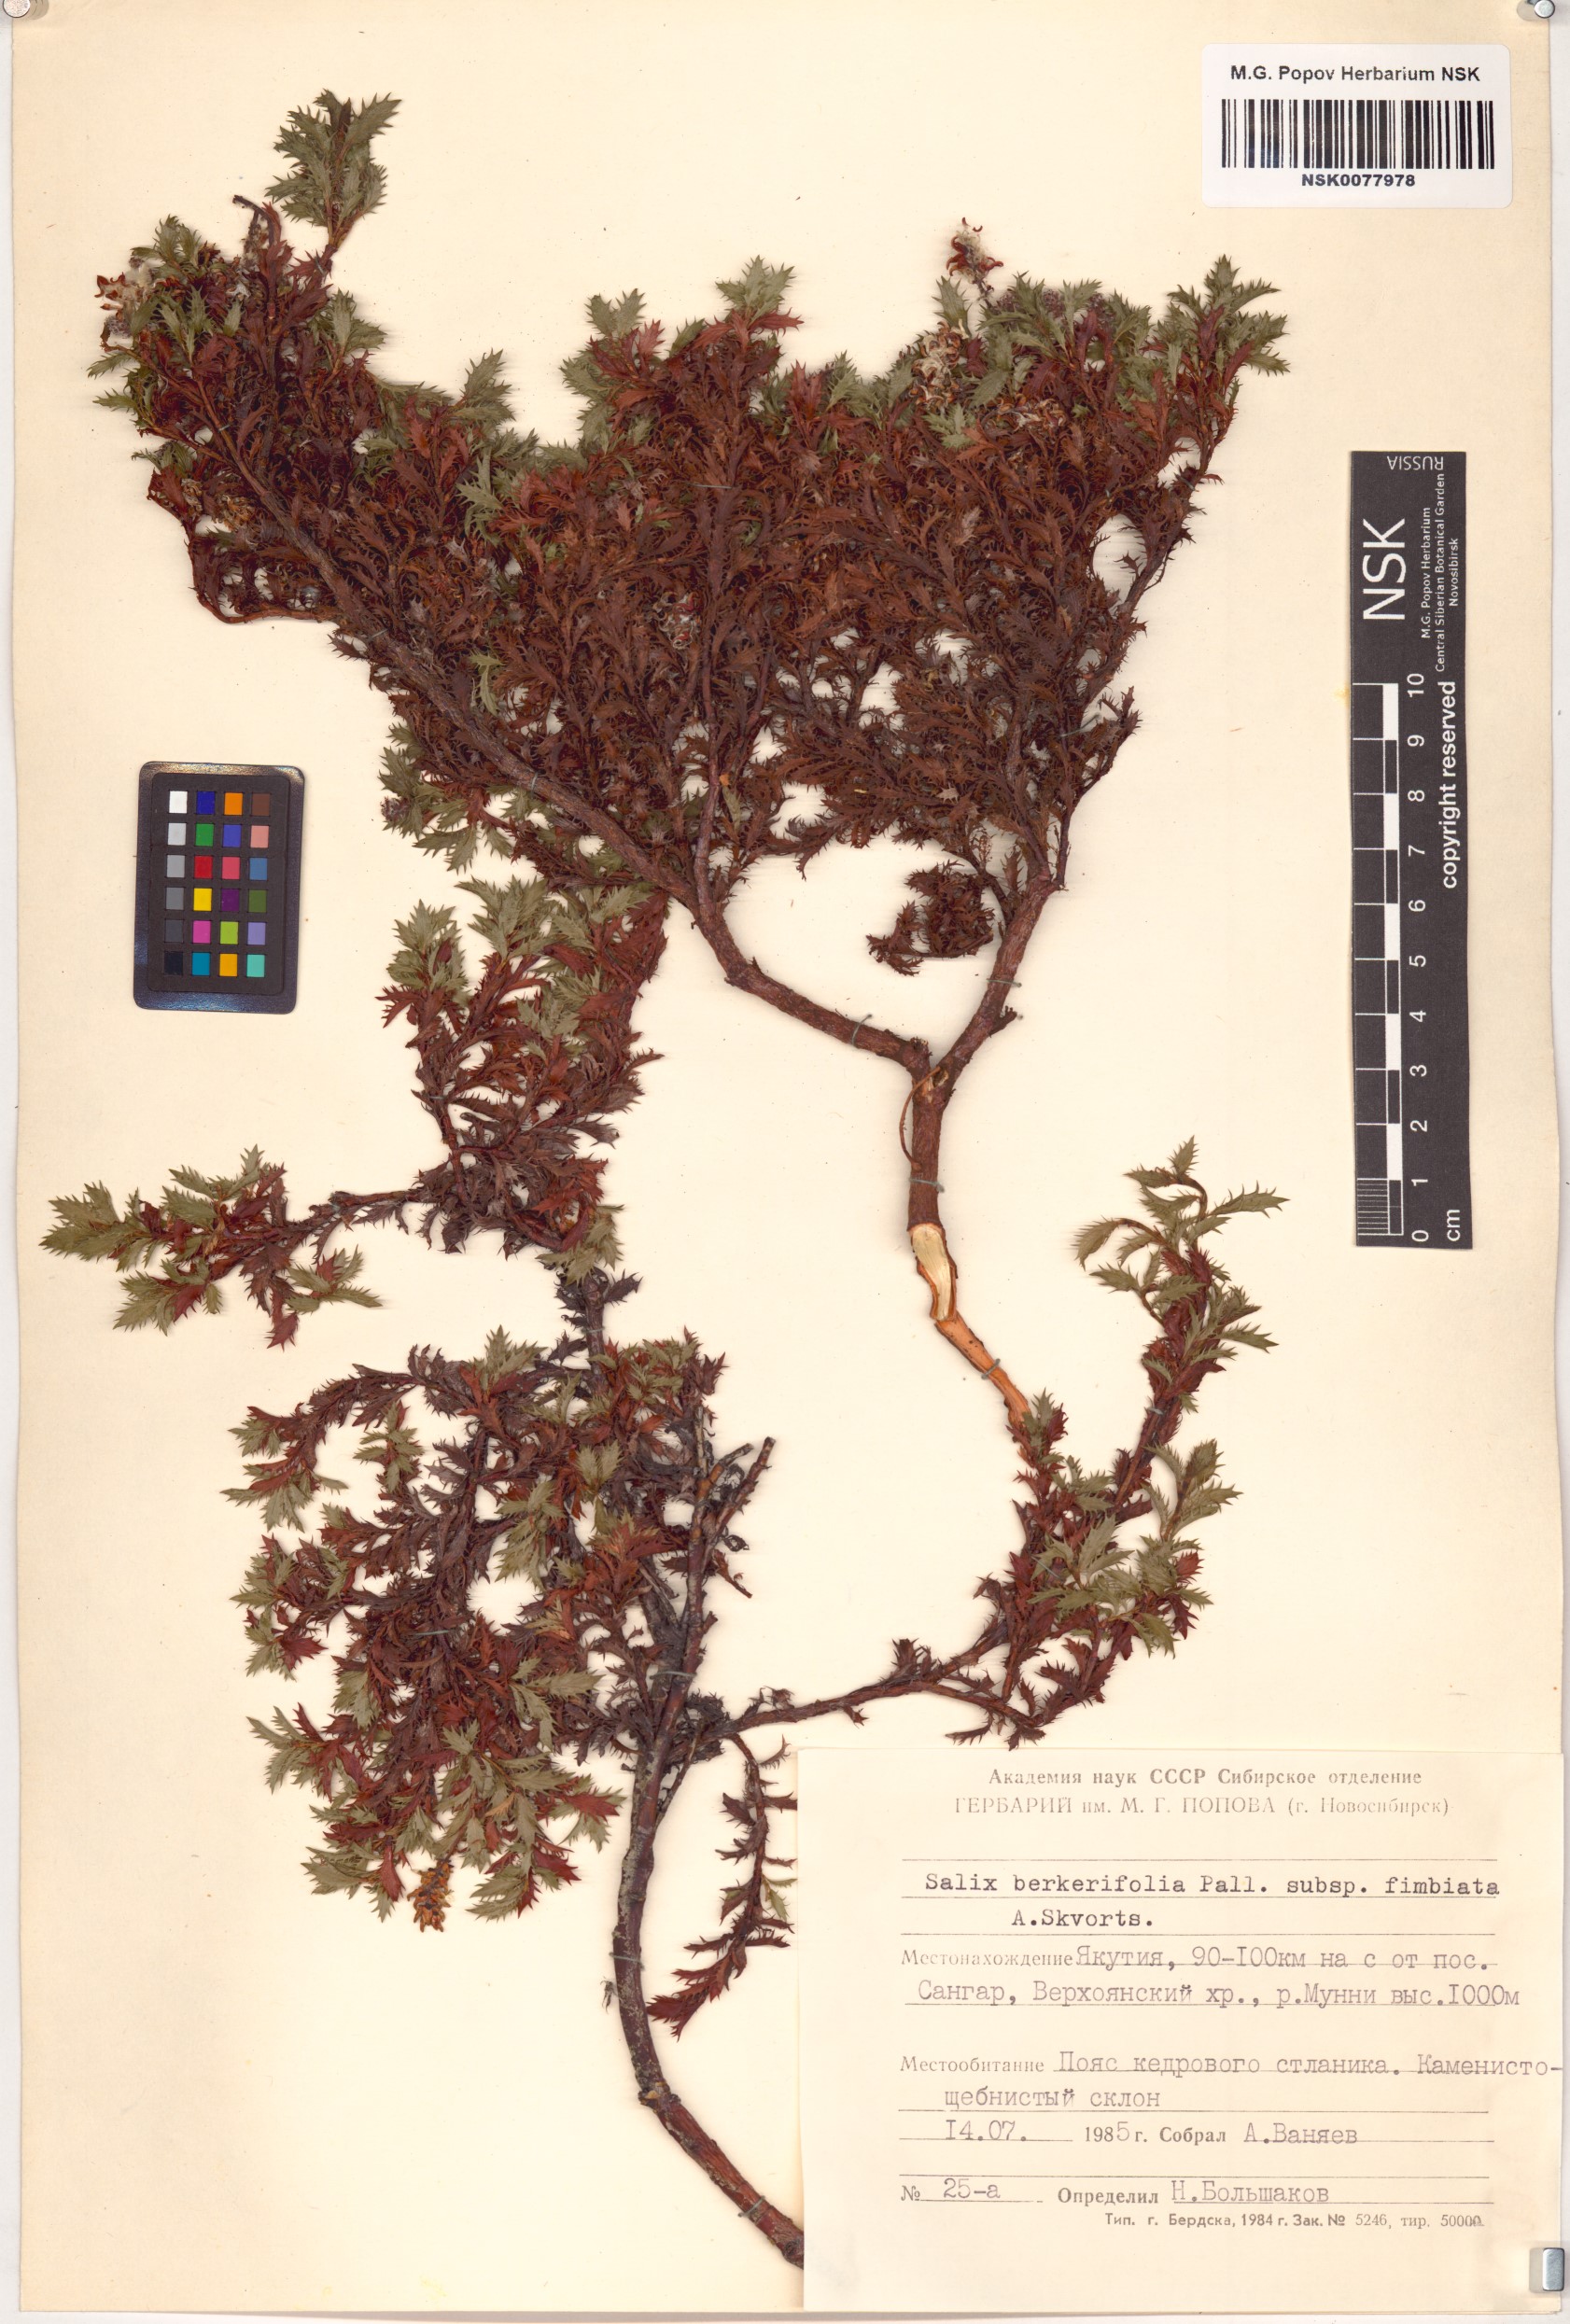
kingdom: Plantae
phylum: Tracheophyta
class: Magnoliopsida
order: Malpighiales
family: Salicaceae
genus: Salix
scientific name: Salix berberifolia
